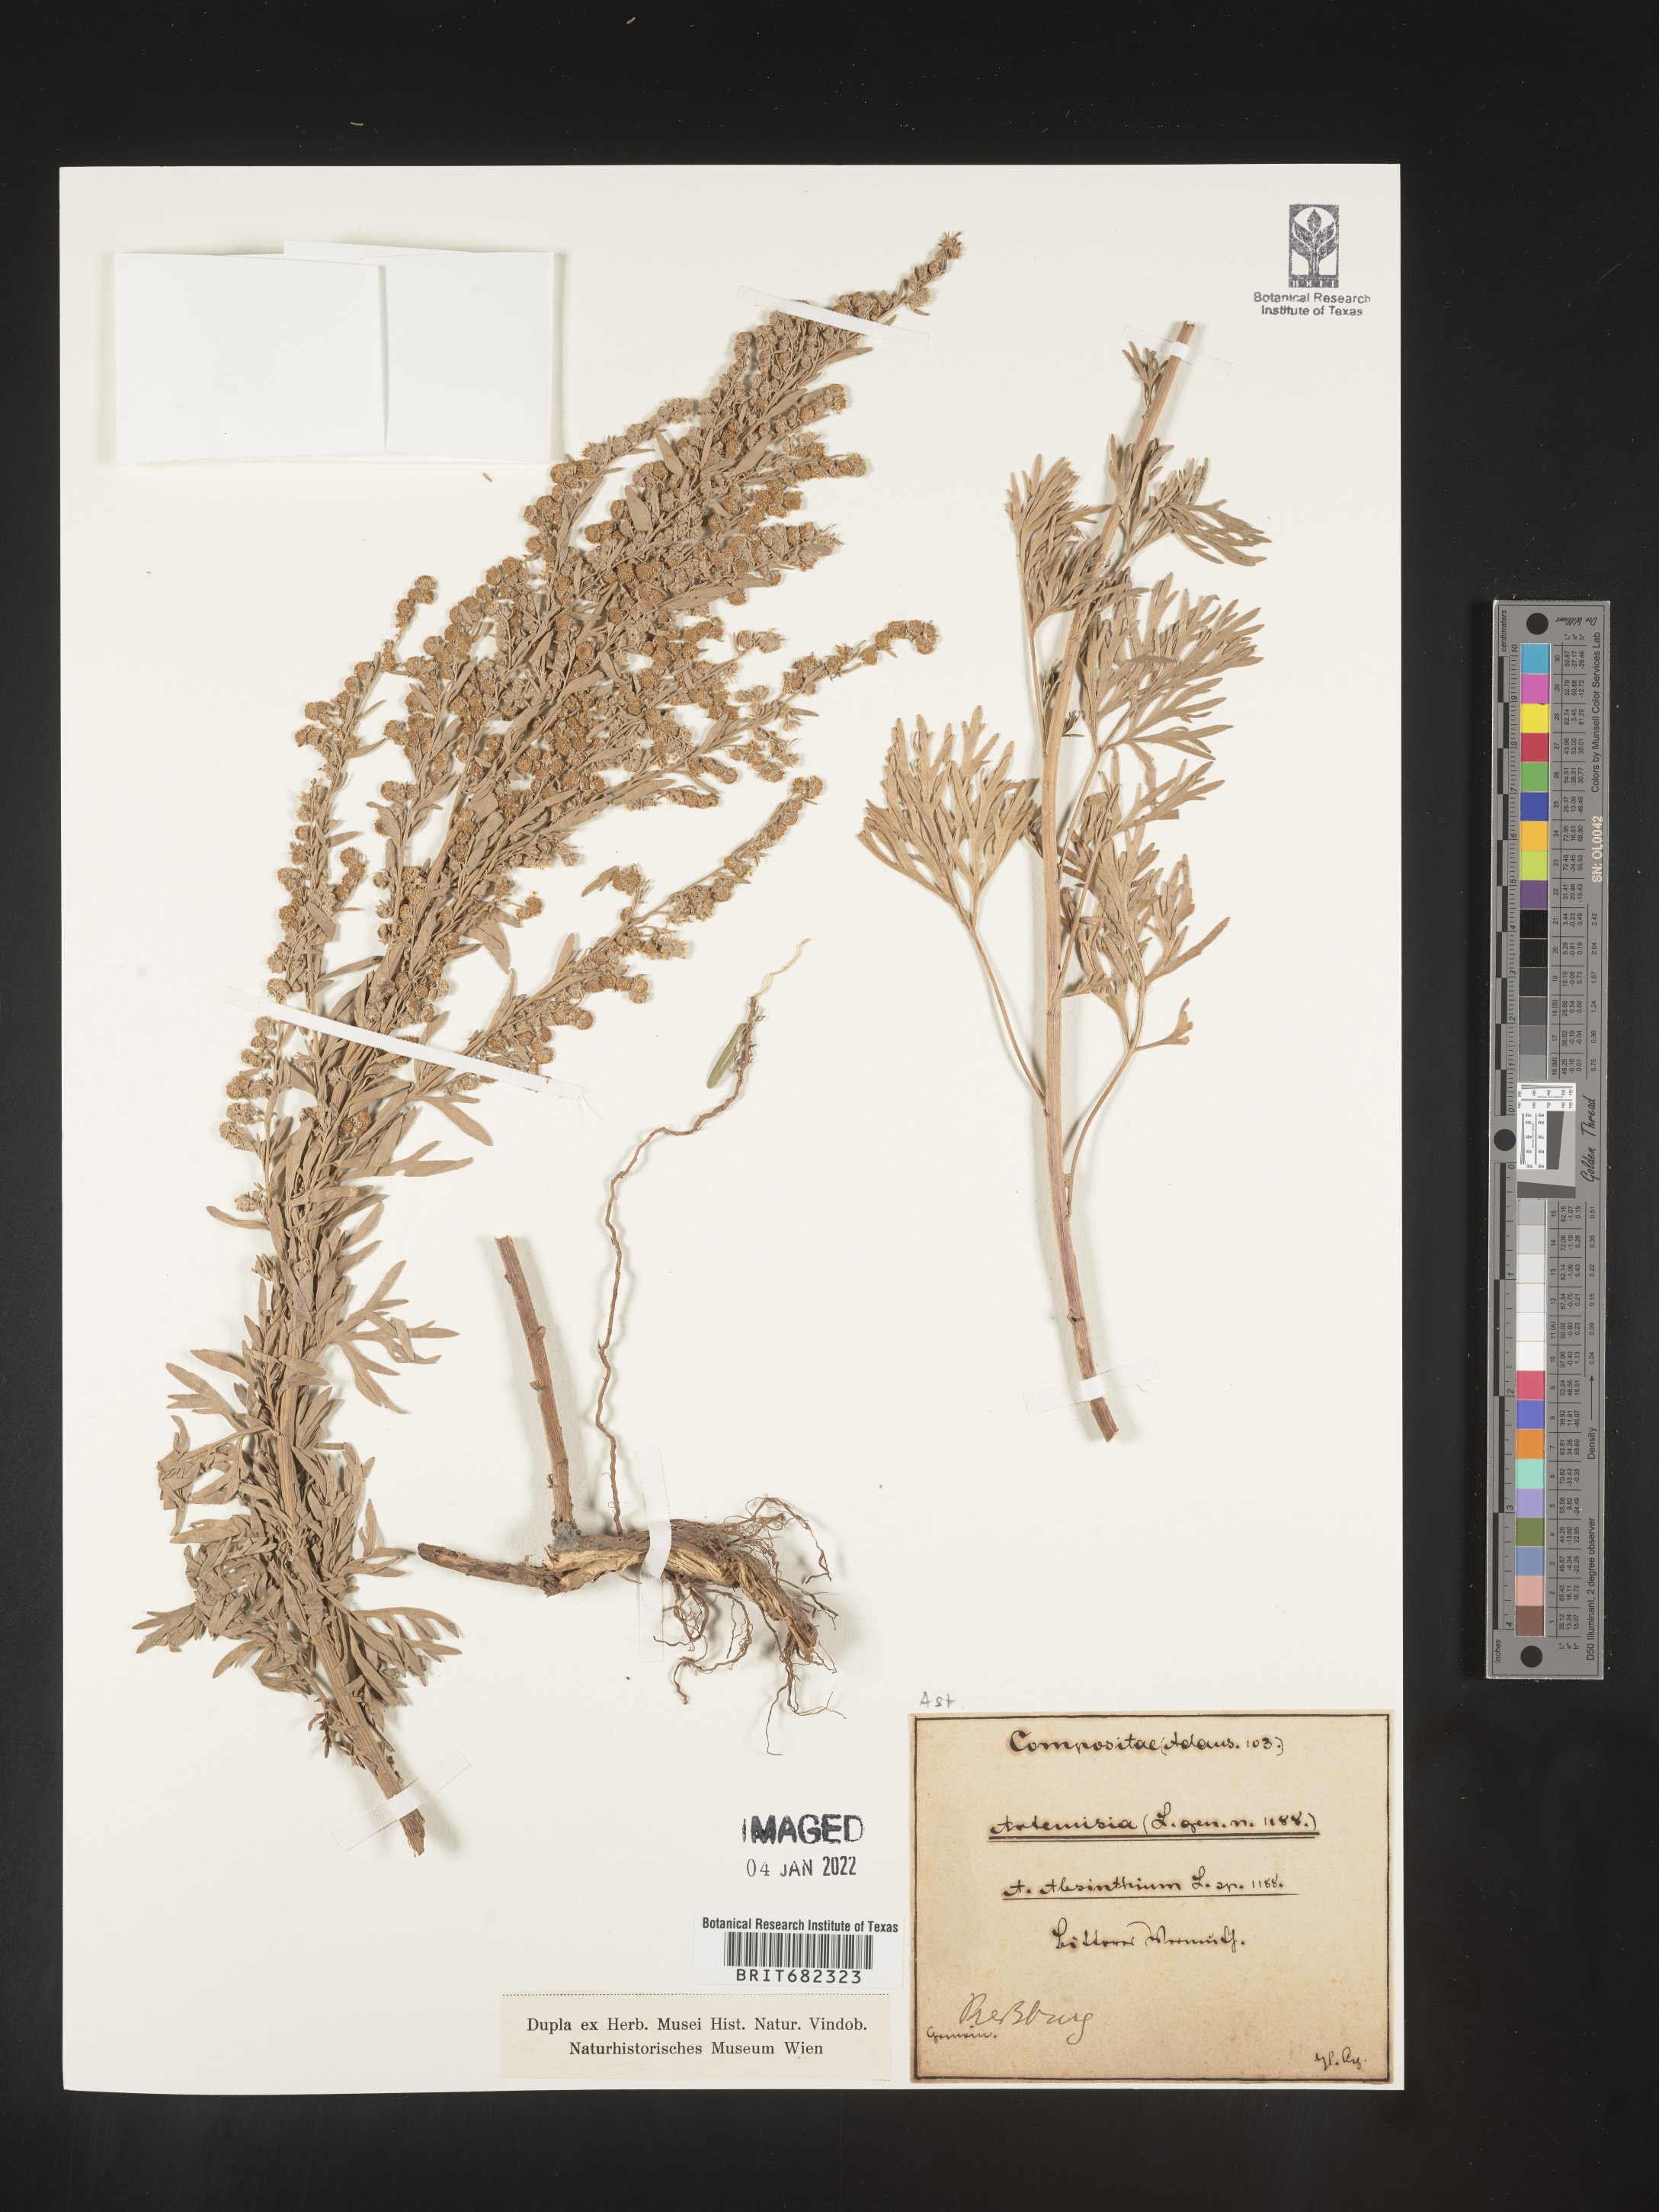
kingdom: Plantae
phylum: Tracheophyta
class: Magnoliopsida
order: Asterales
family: Asteraceae
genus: Artemisia
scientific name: Artemisia
